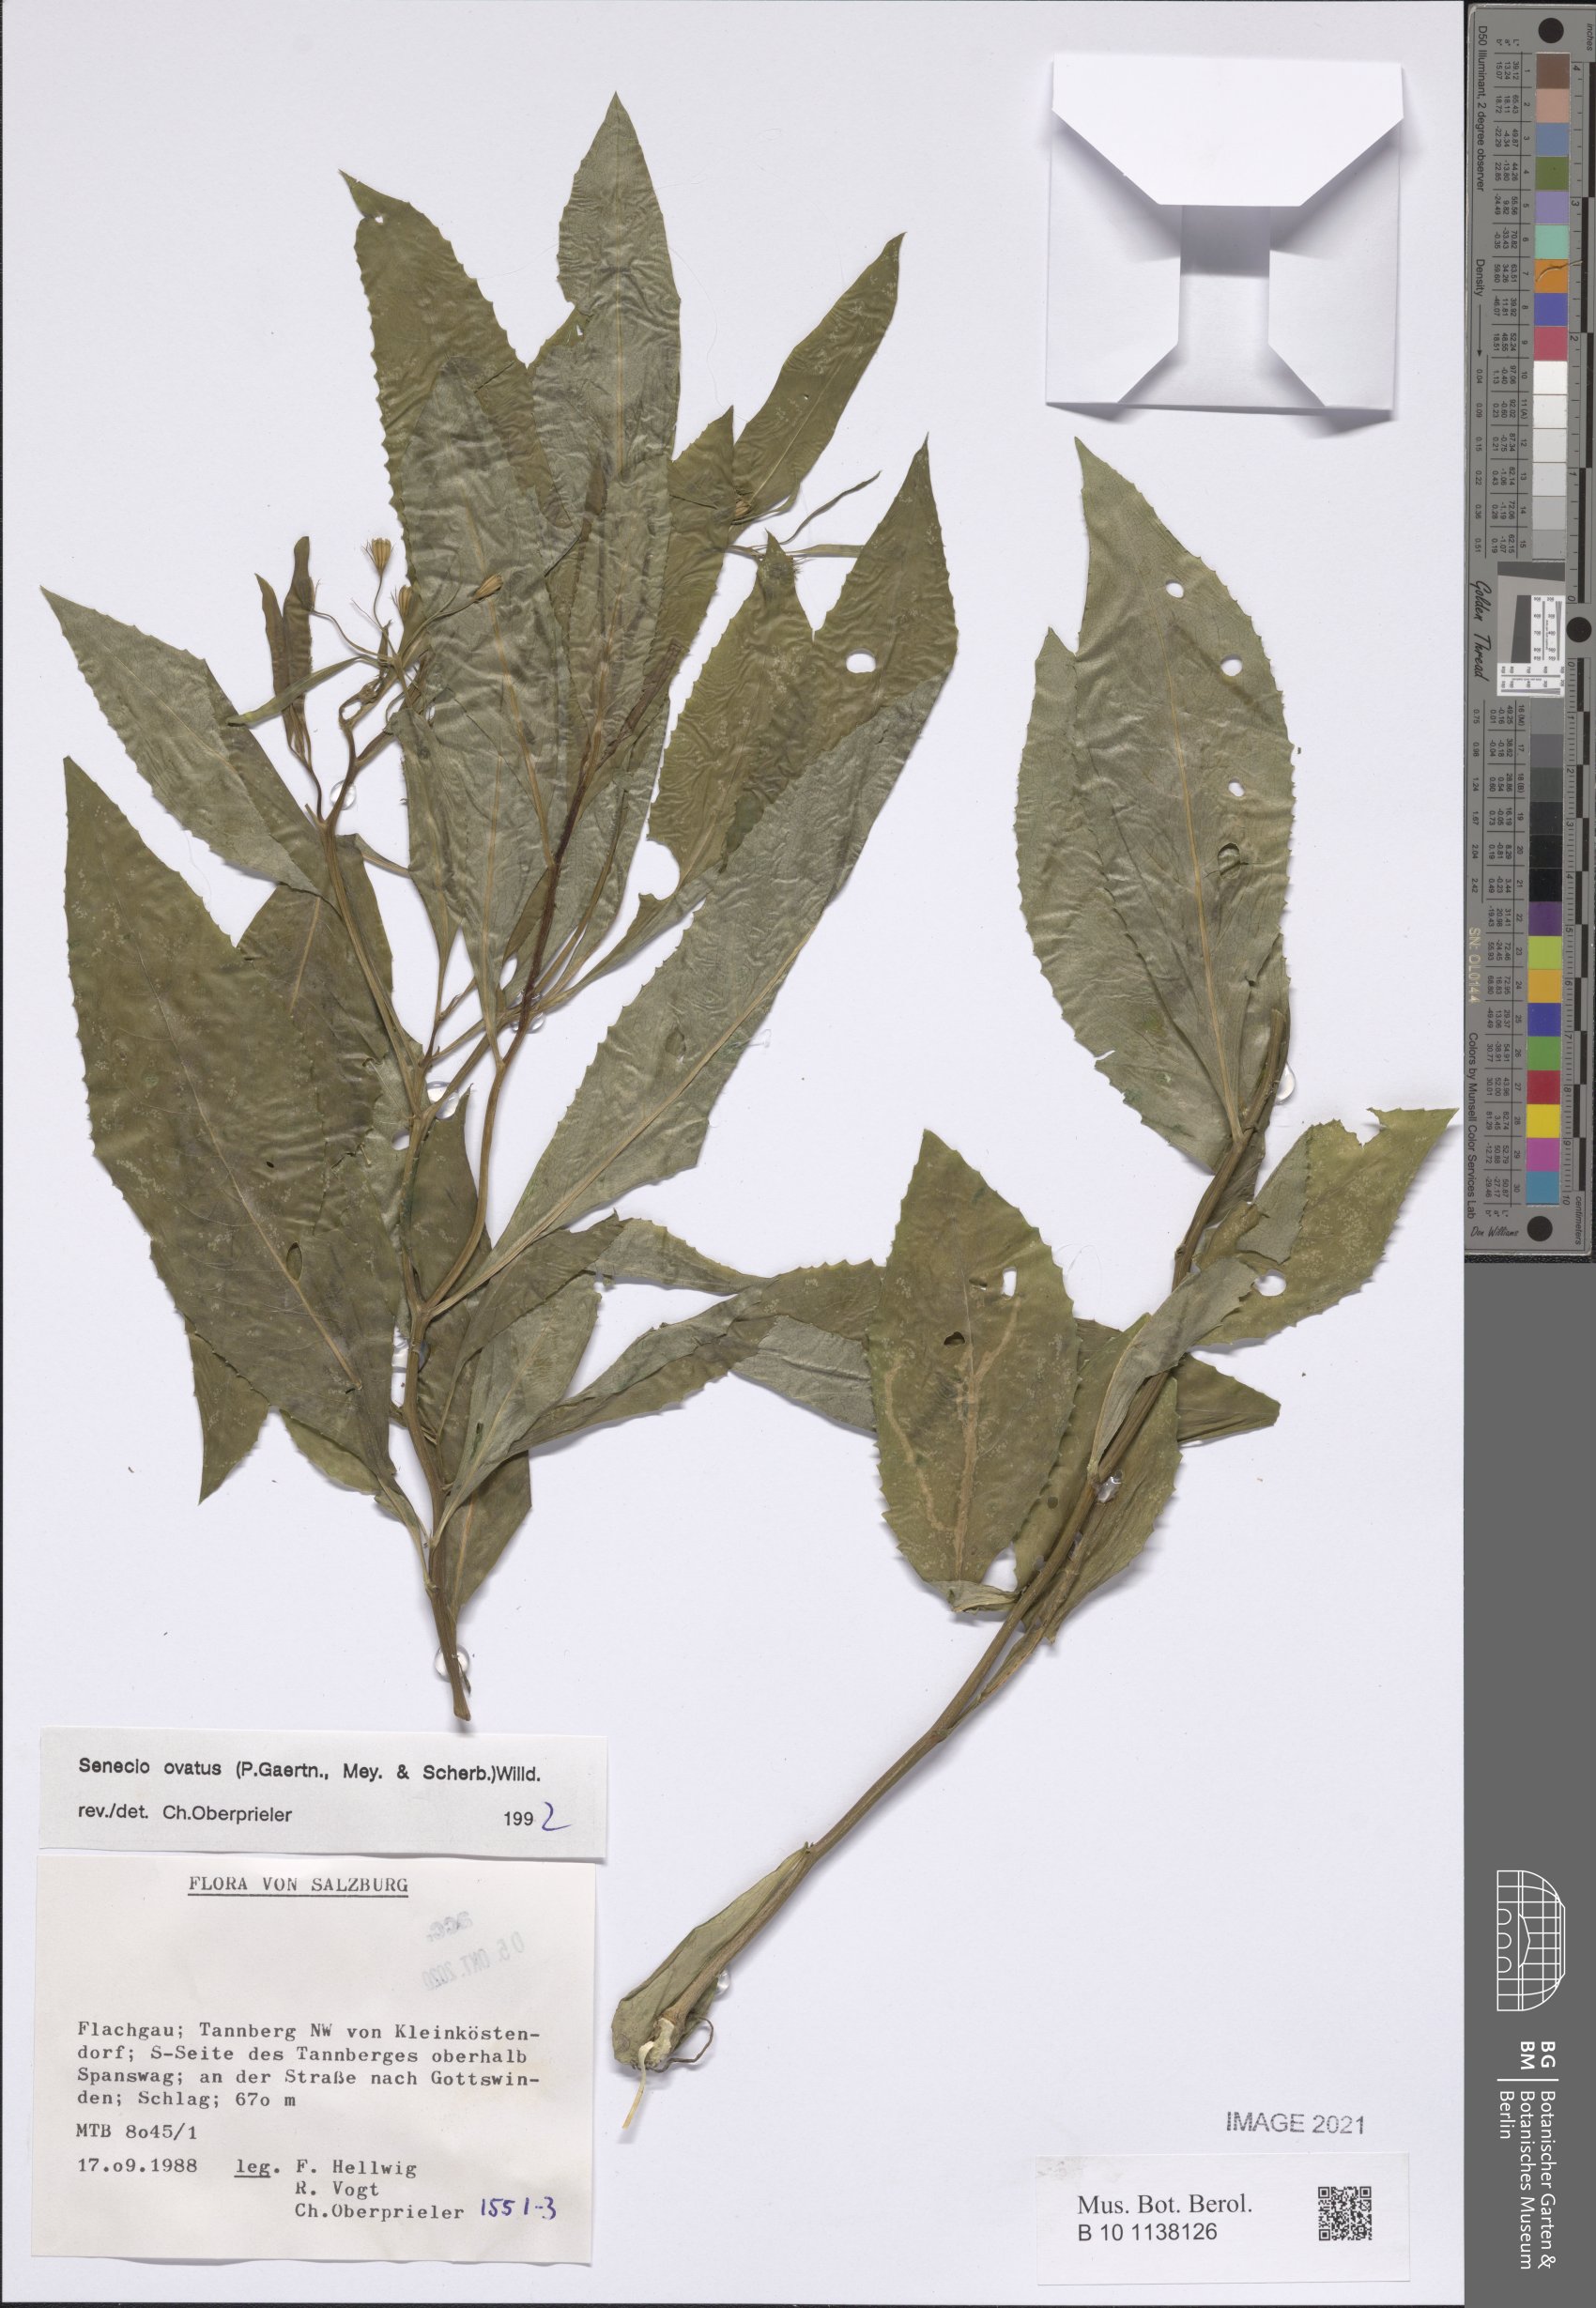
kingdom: Plantae
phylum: Tracheophyta
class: Magnoliopsida
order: Asterales
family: Asteraceae
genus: Senecio
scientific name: Senecio ovatus
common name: Wood ragwort
